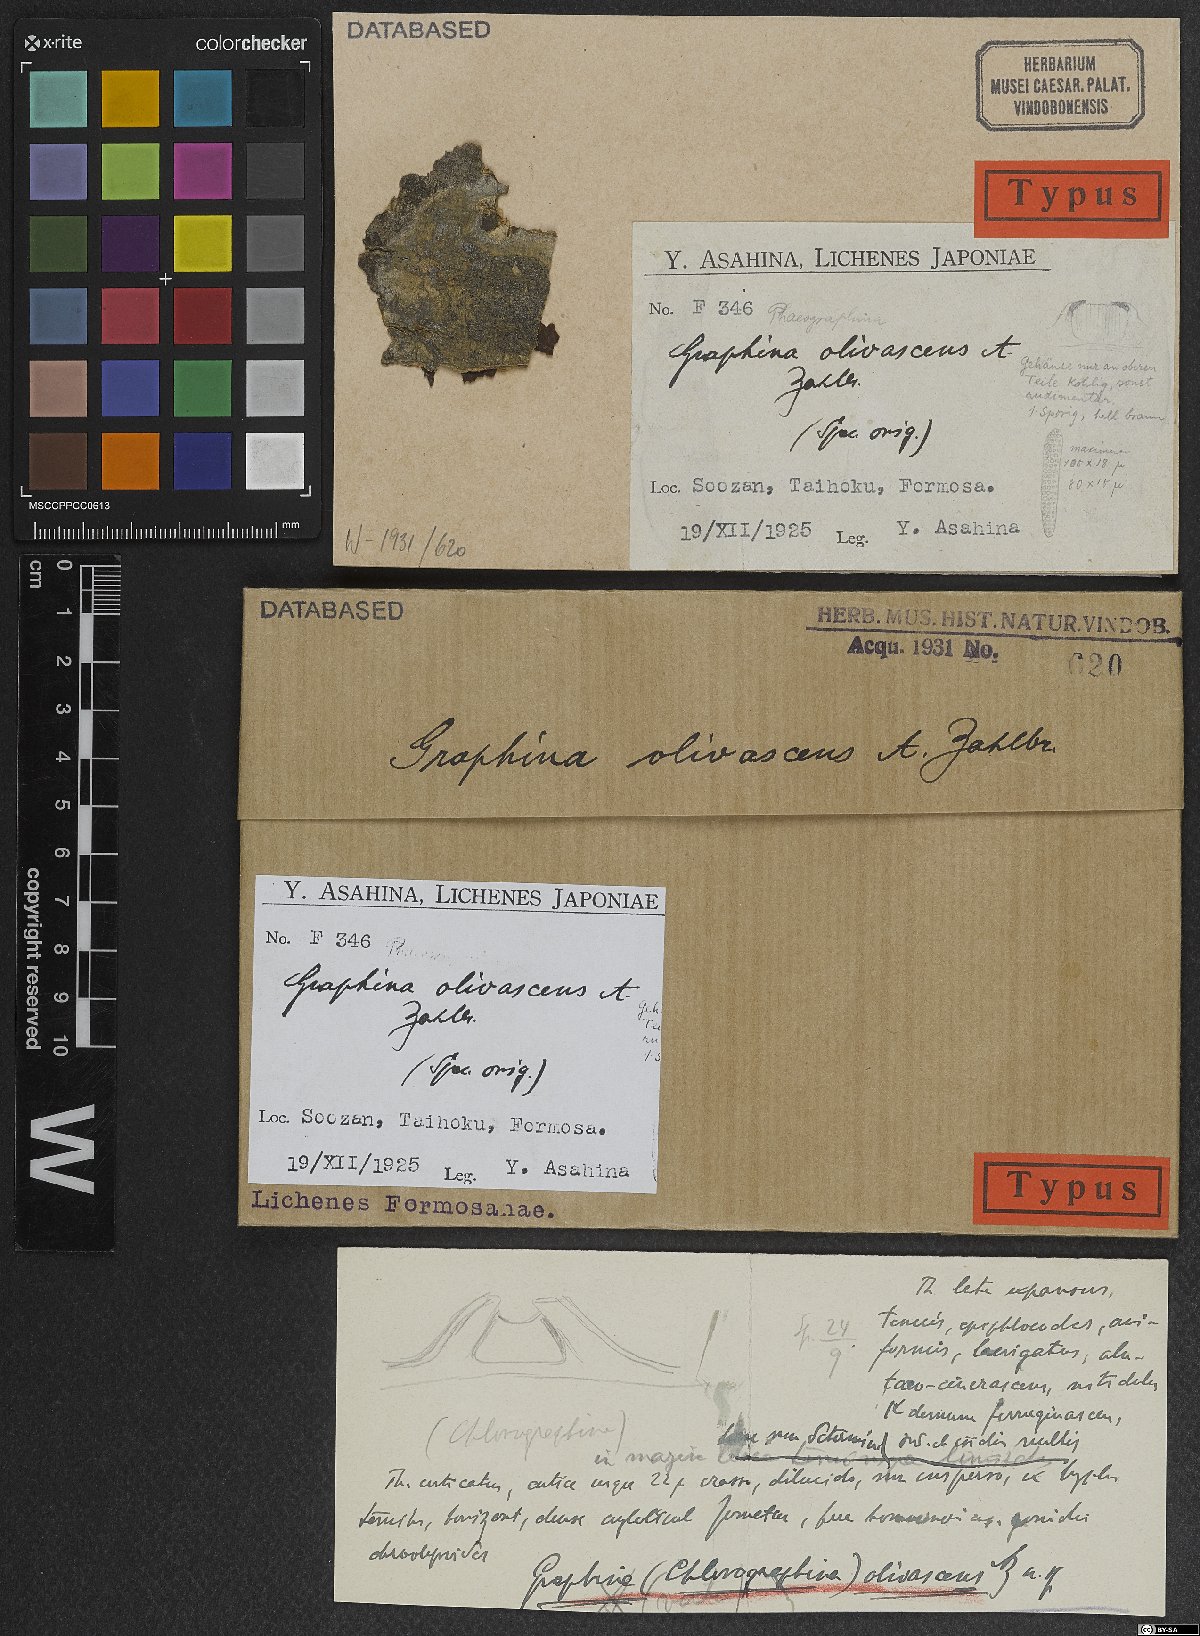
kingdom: Fungi
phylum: Ascomycota
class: Lecanoromycetes
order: Ostropales
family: Graphidaceae
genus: Platygramme
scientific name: Platygramme taiwanensis
